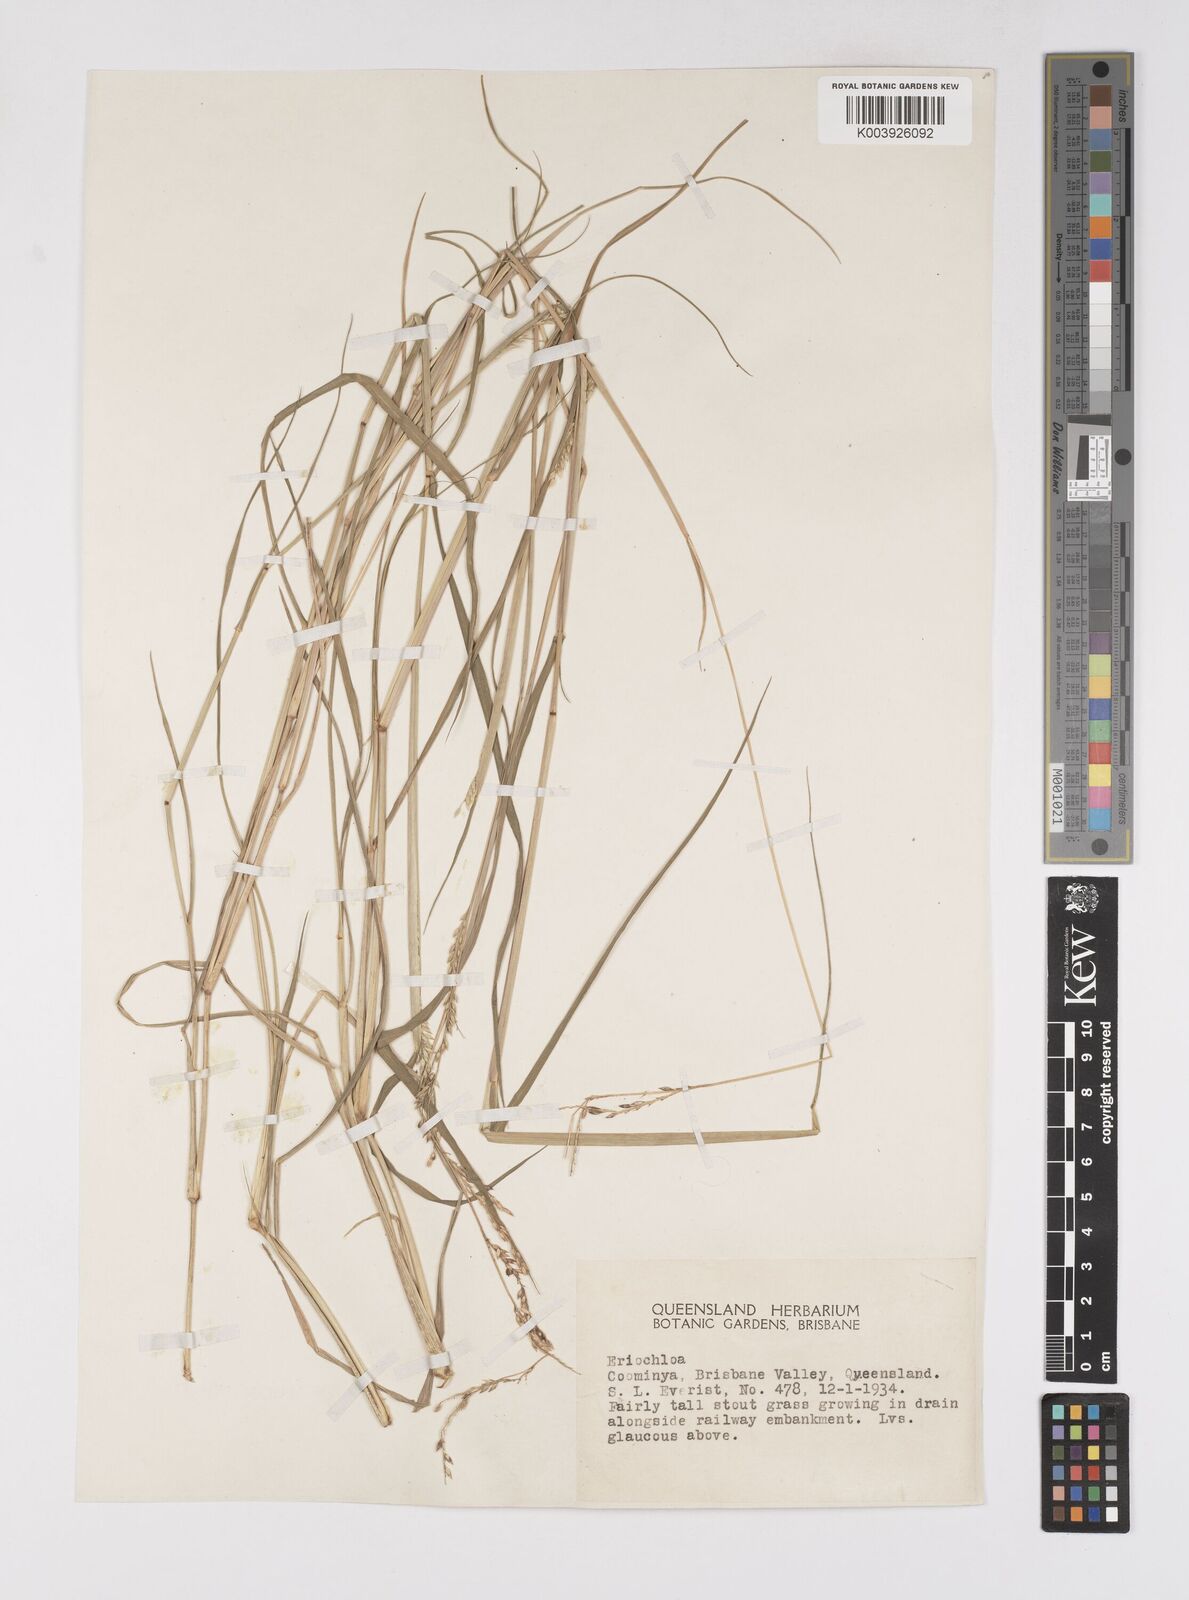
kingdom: Plantae
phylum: Tracheophyta
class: Liliopsida
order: Poales
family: Poaceae
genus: Eriochloa
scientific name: Eriochloa
